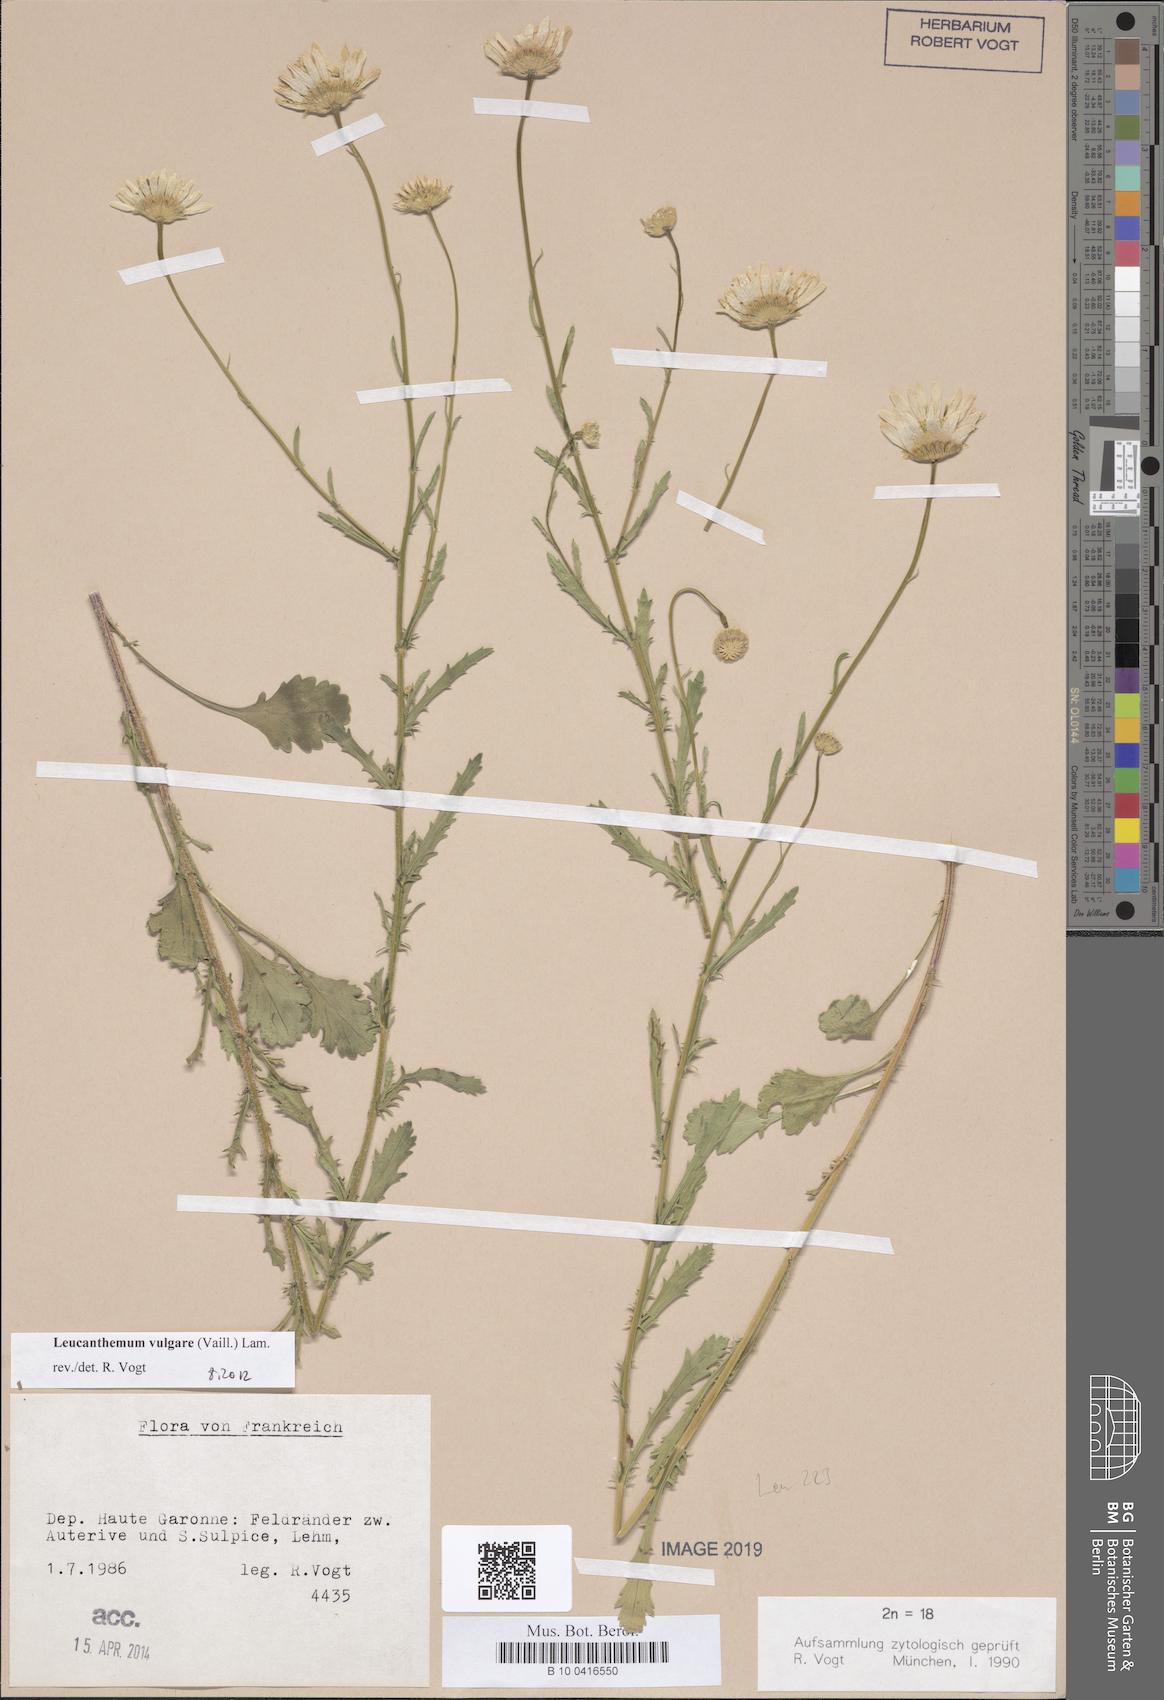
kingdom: Plantae
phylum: Tracheophyta
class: Magnoliopsida
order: Asterales
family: Asteraceae
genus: Leucanthemum
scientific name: Leucanthemum vulgare
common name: Oxeye daisy
